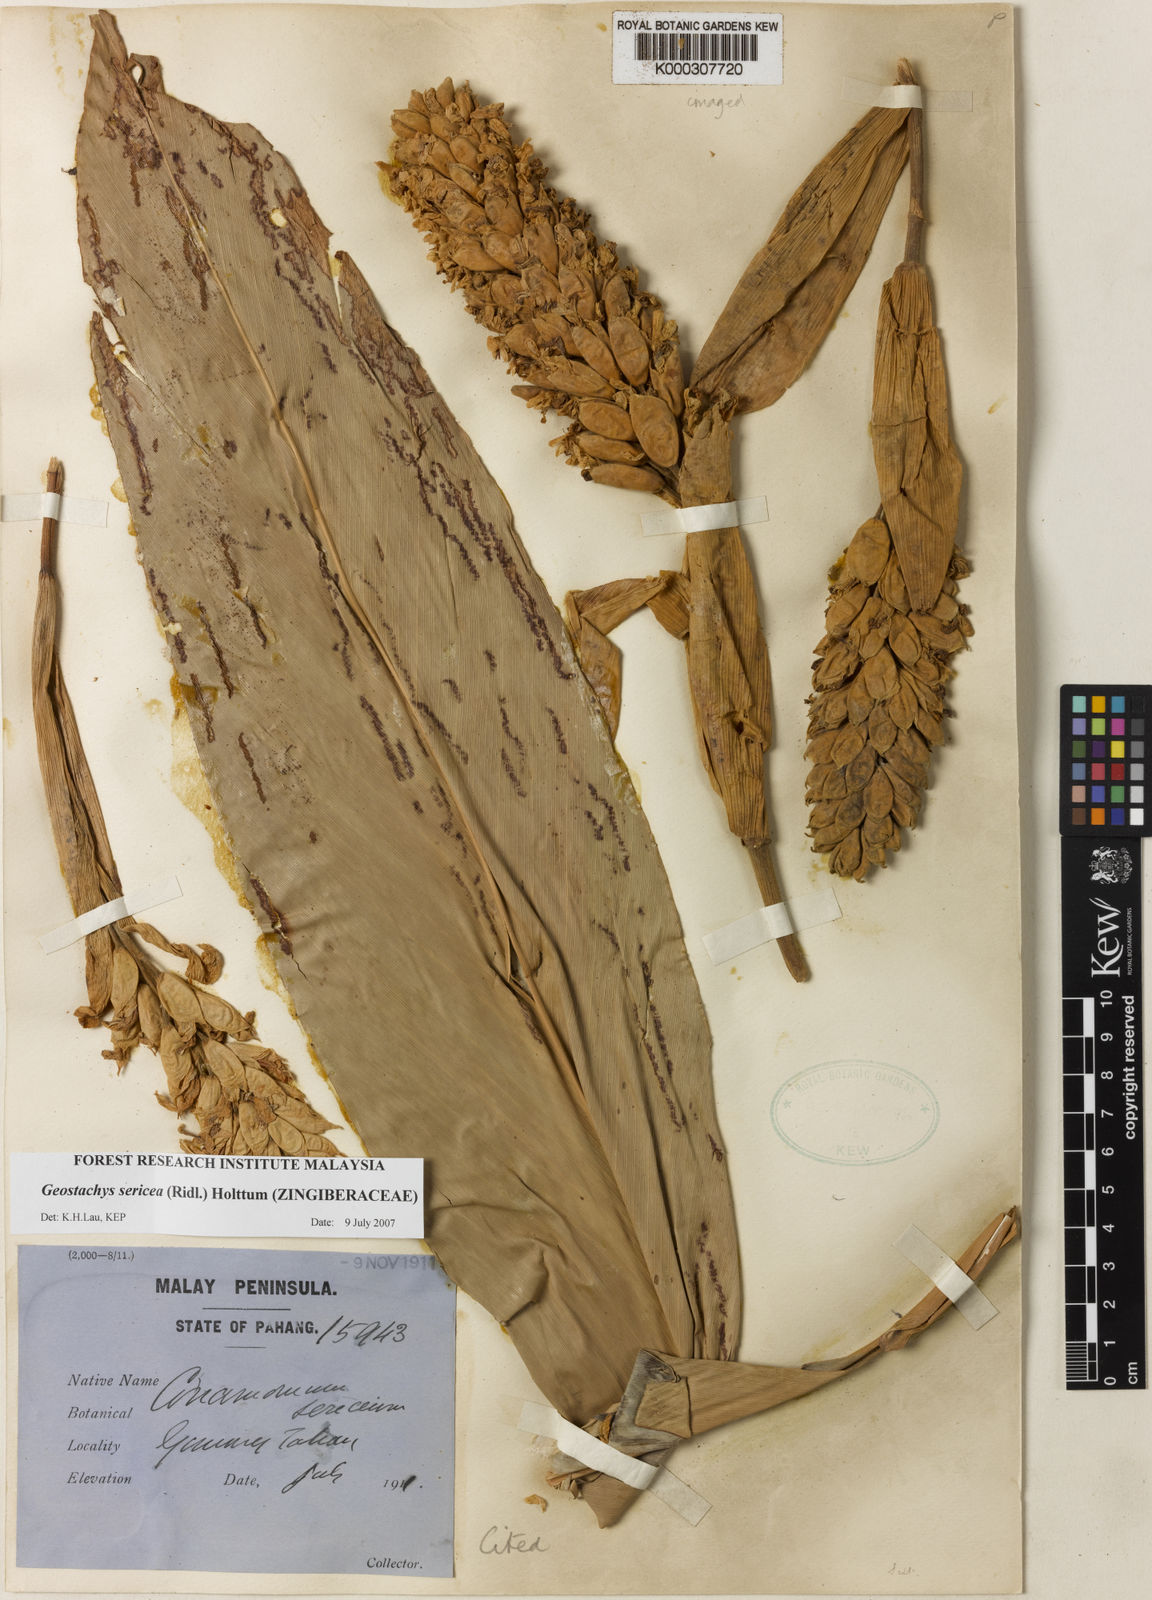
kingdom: Plantae
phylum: Tracheophyta
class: Liliopsida
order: Zingiberales
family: Zingiberaceae
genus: Geostachys
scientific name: Geostachys sericea
